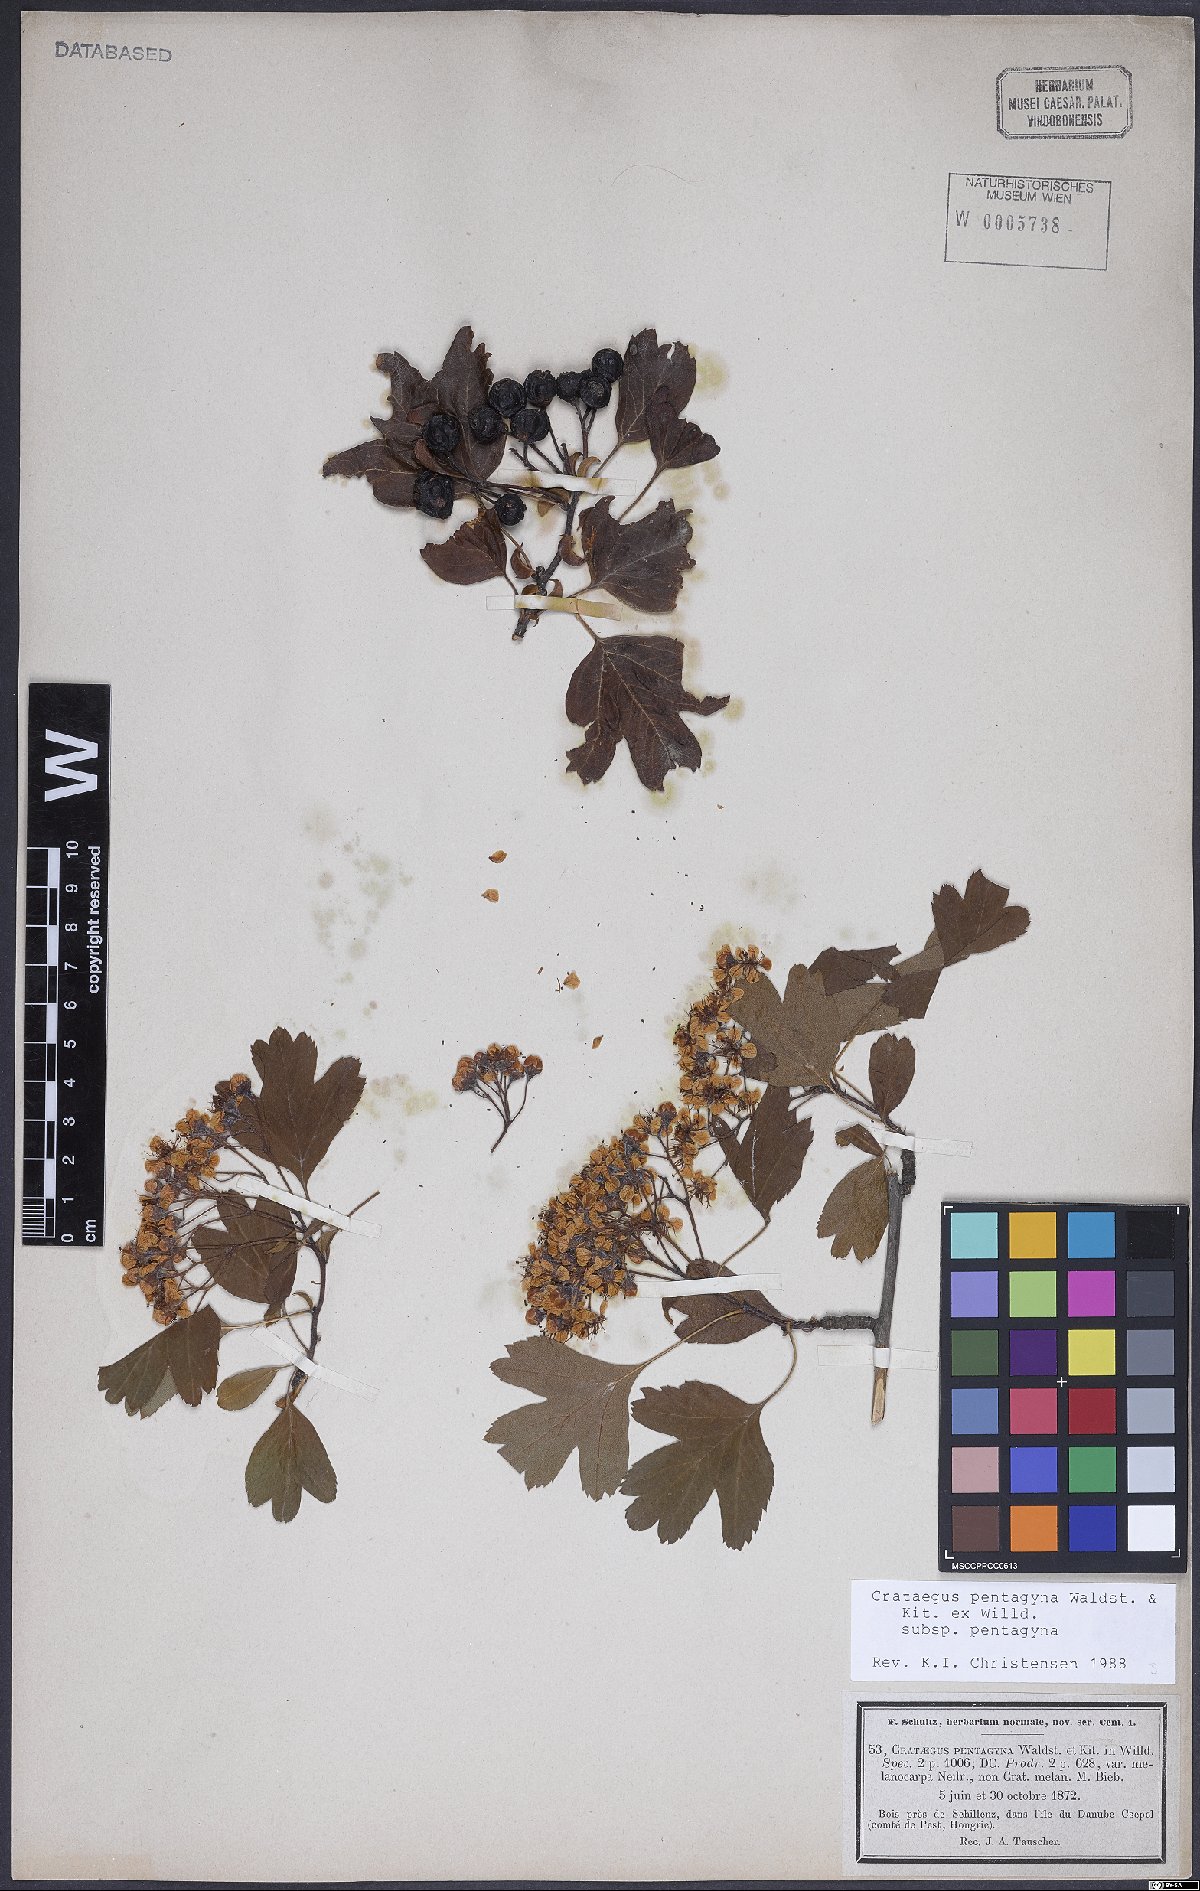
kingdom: Plantae
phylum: Tracheophyta
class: Magnoliopsida
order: Rosales
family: Rosaceae
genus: Crataegus
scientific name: Crataegus pentagyna
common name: Small-flowered black hawthorn
